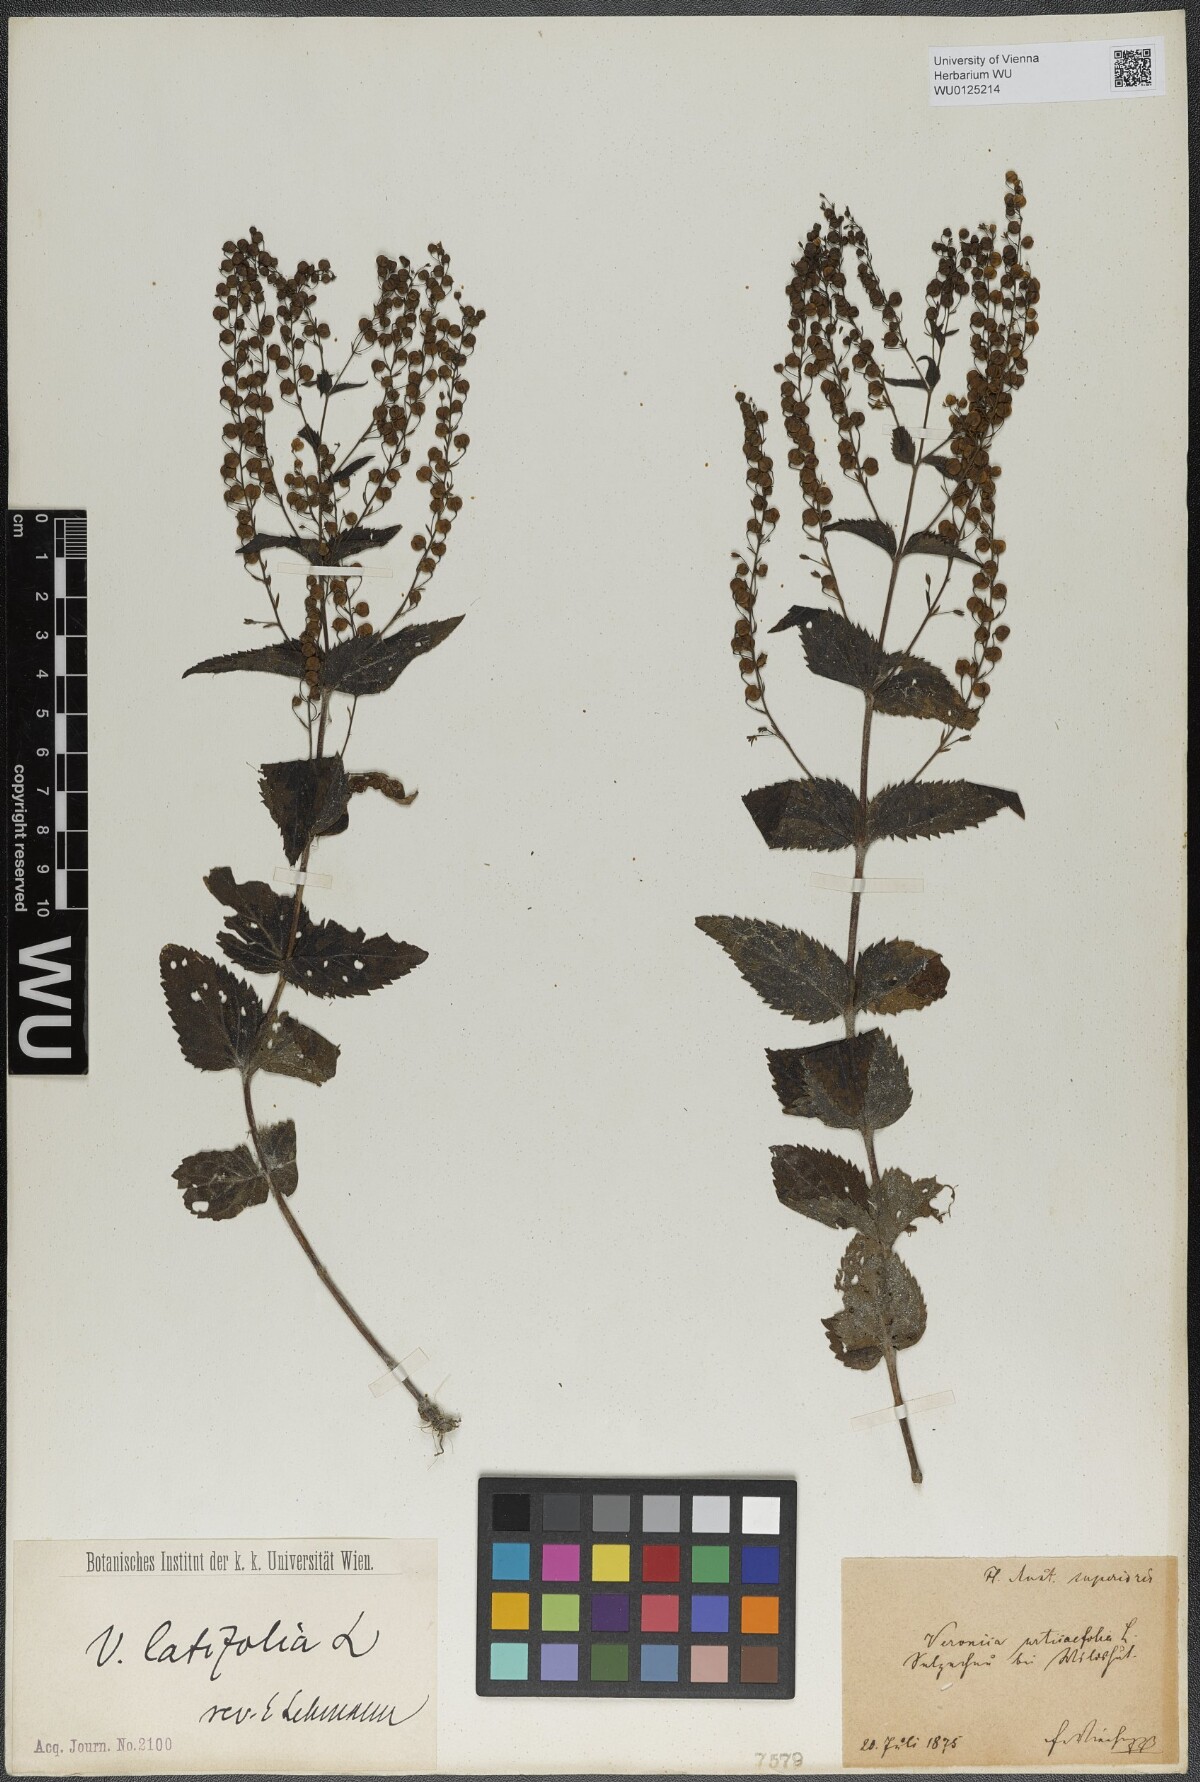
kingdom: Plantae
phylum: Tracheophyta
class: Magnoliopsida
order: Lamiales
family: Plantaginaceae
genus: Veronica
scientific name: Veronica urticifolia
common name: Nettle-leaf speedwell
